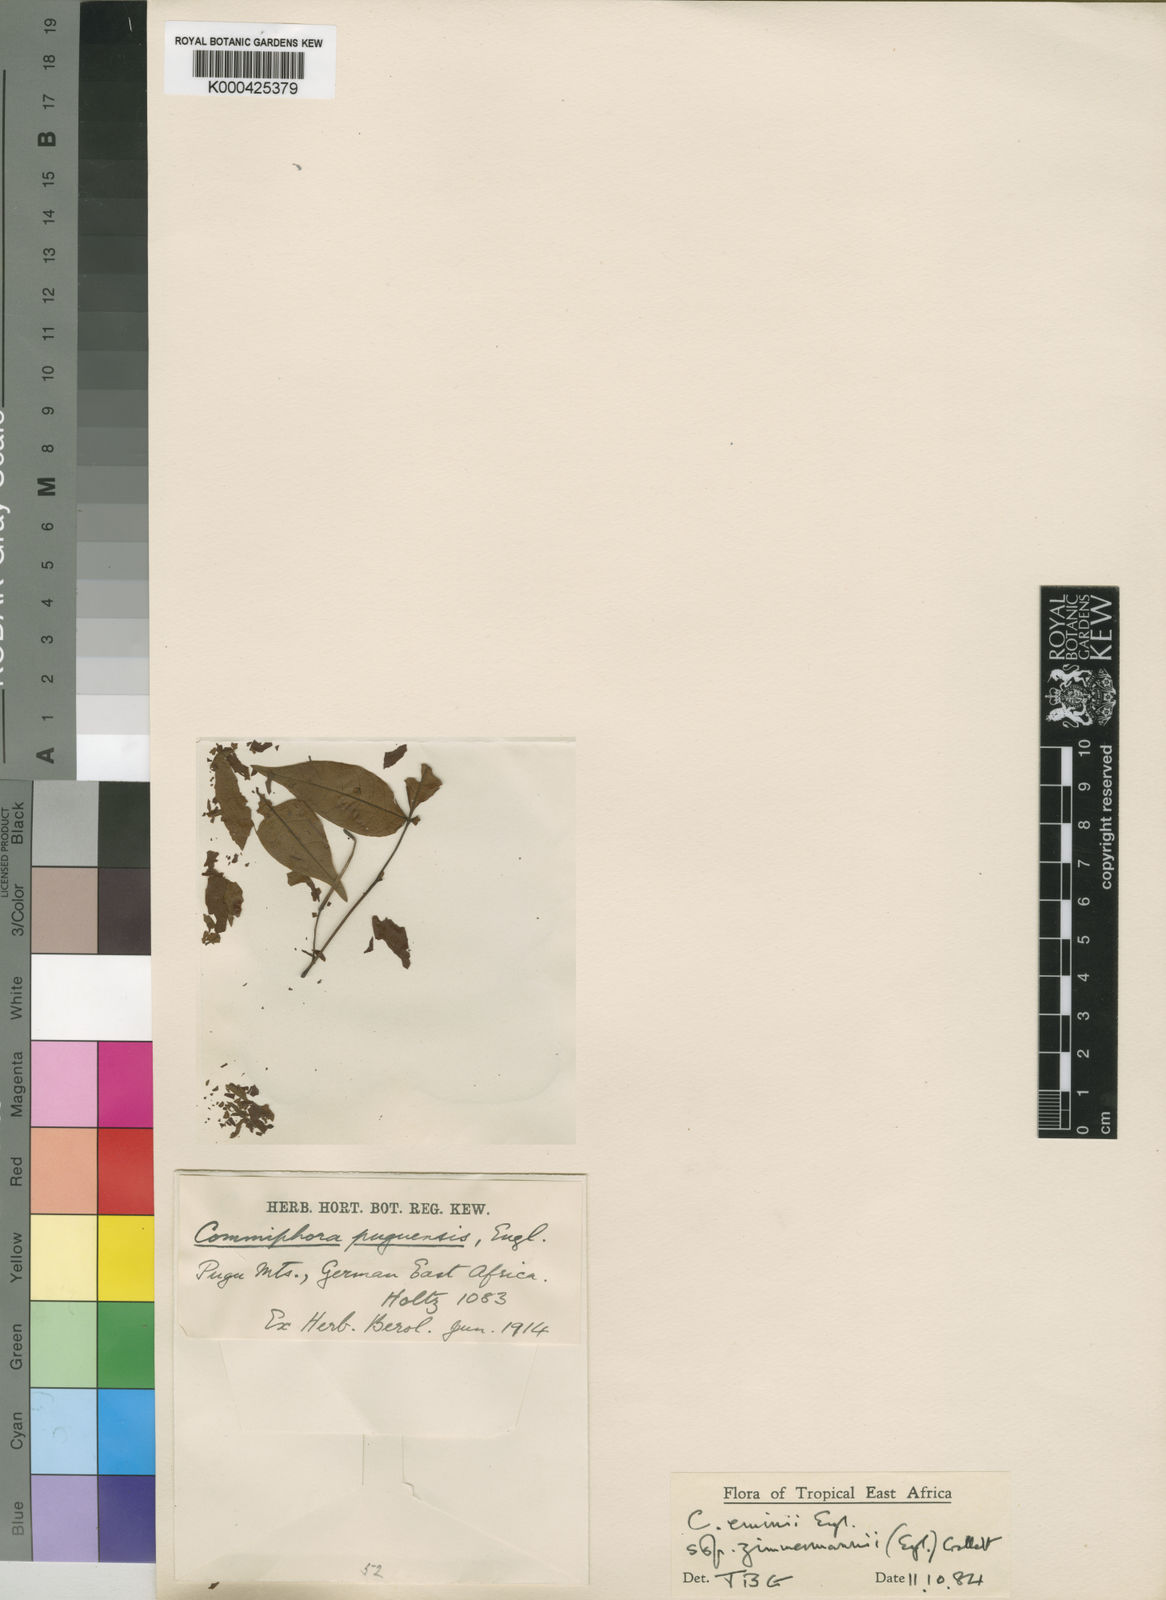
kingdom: Plantae
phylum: Tracheophyta
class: Magnoliopsida
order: Sapindales
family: Burseraceae
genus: Commiphora
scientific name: Commiphora eminii
